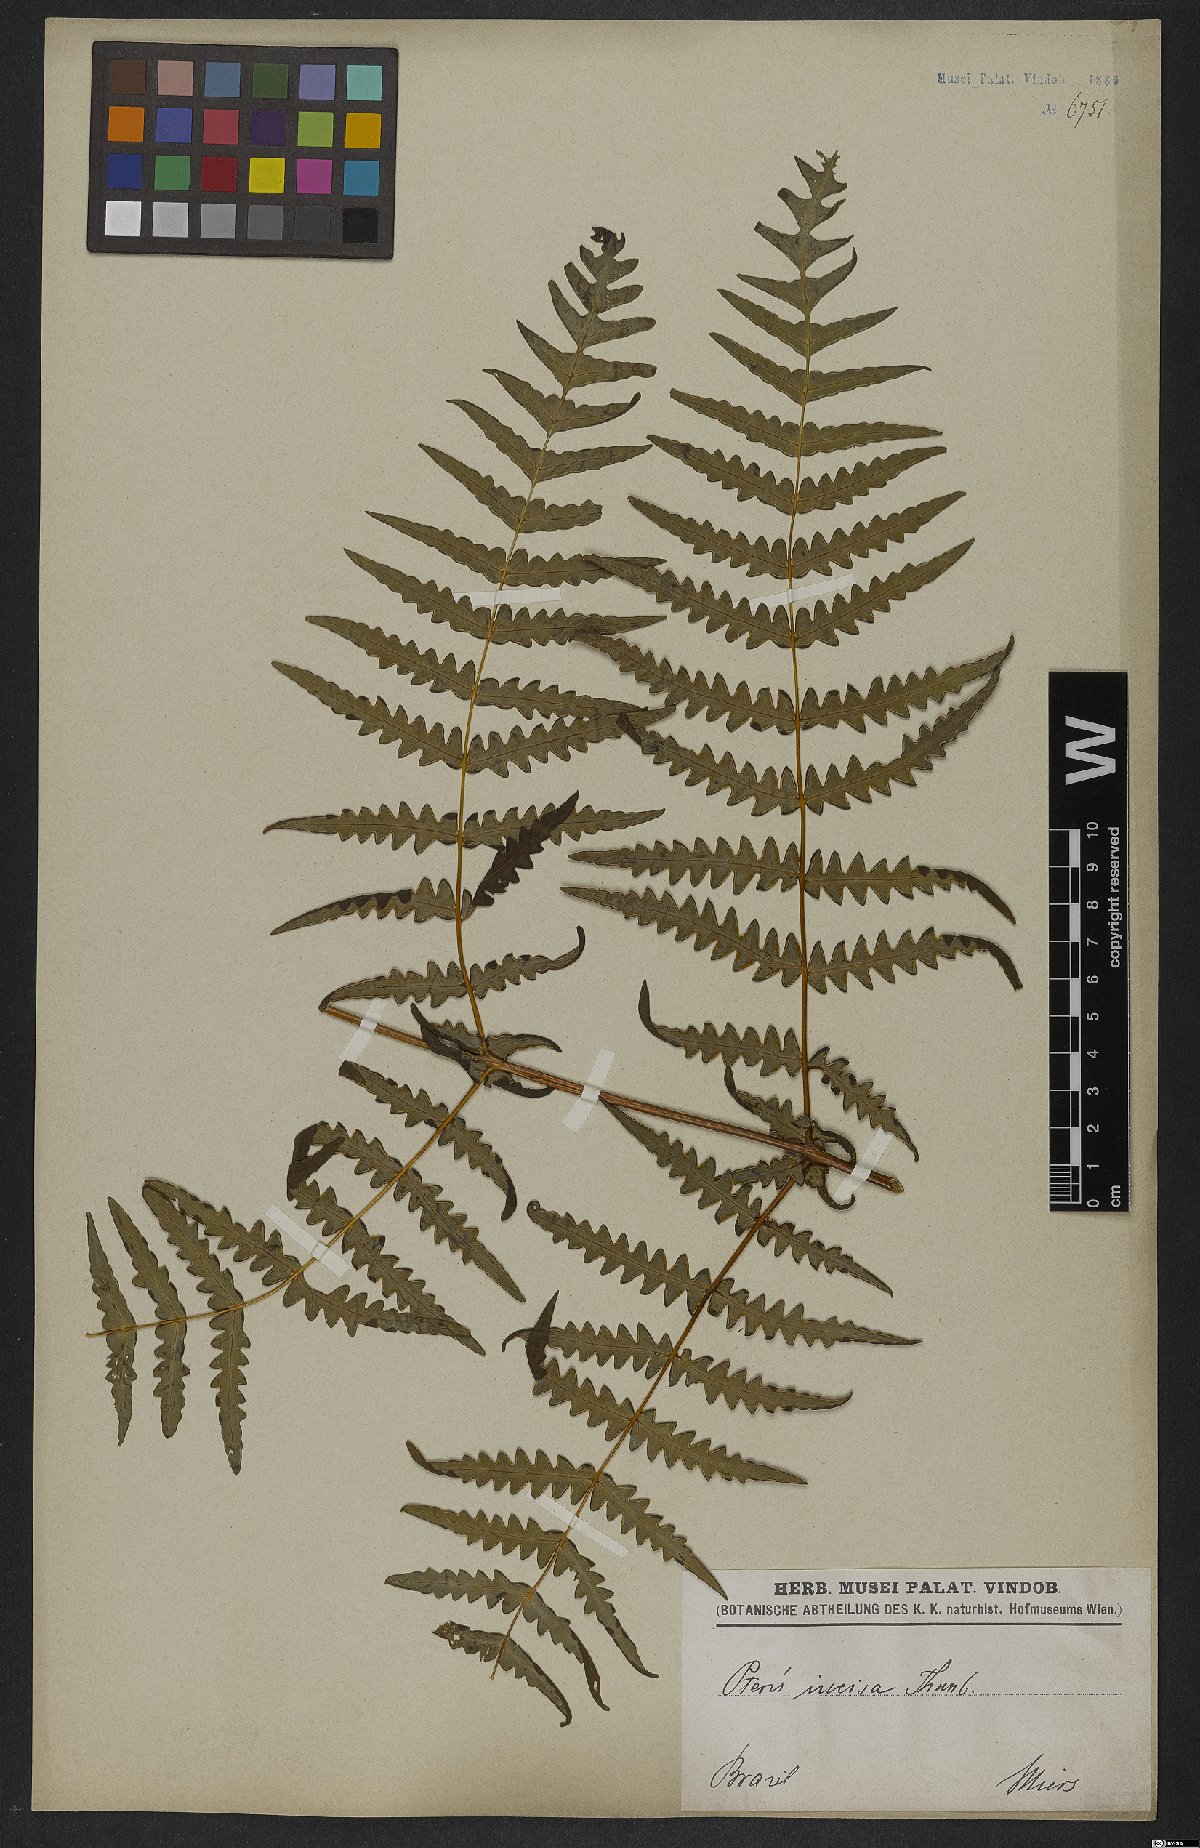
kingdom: Plantae
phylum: Tracheophyta
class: Polypodiopsida
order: Polypodiales
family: Dennstaedtiaceae
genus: Histiopteris
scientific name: Histiopteris incisa
